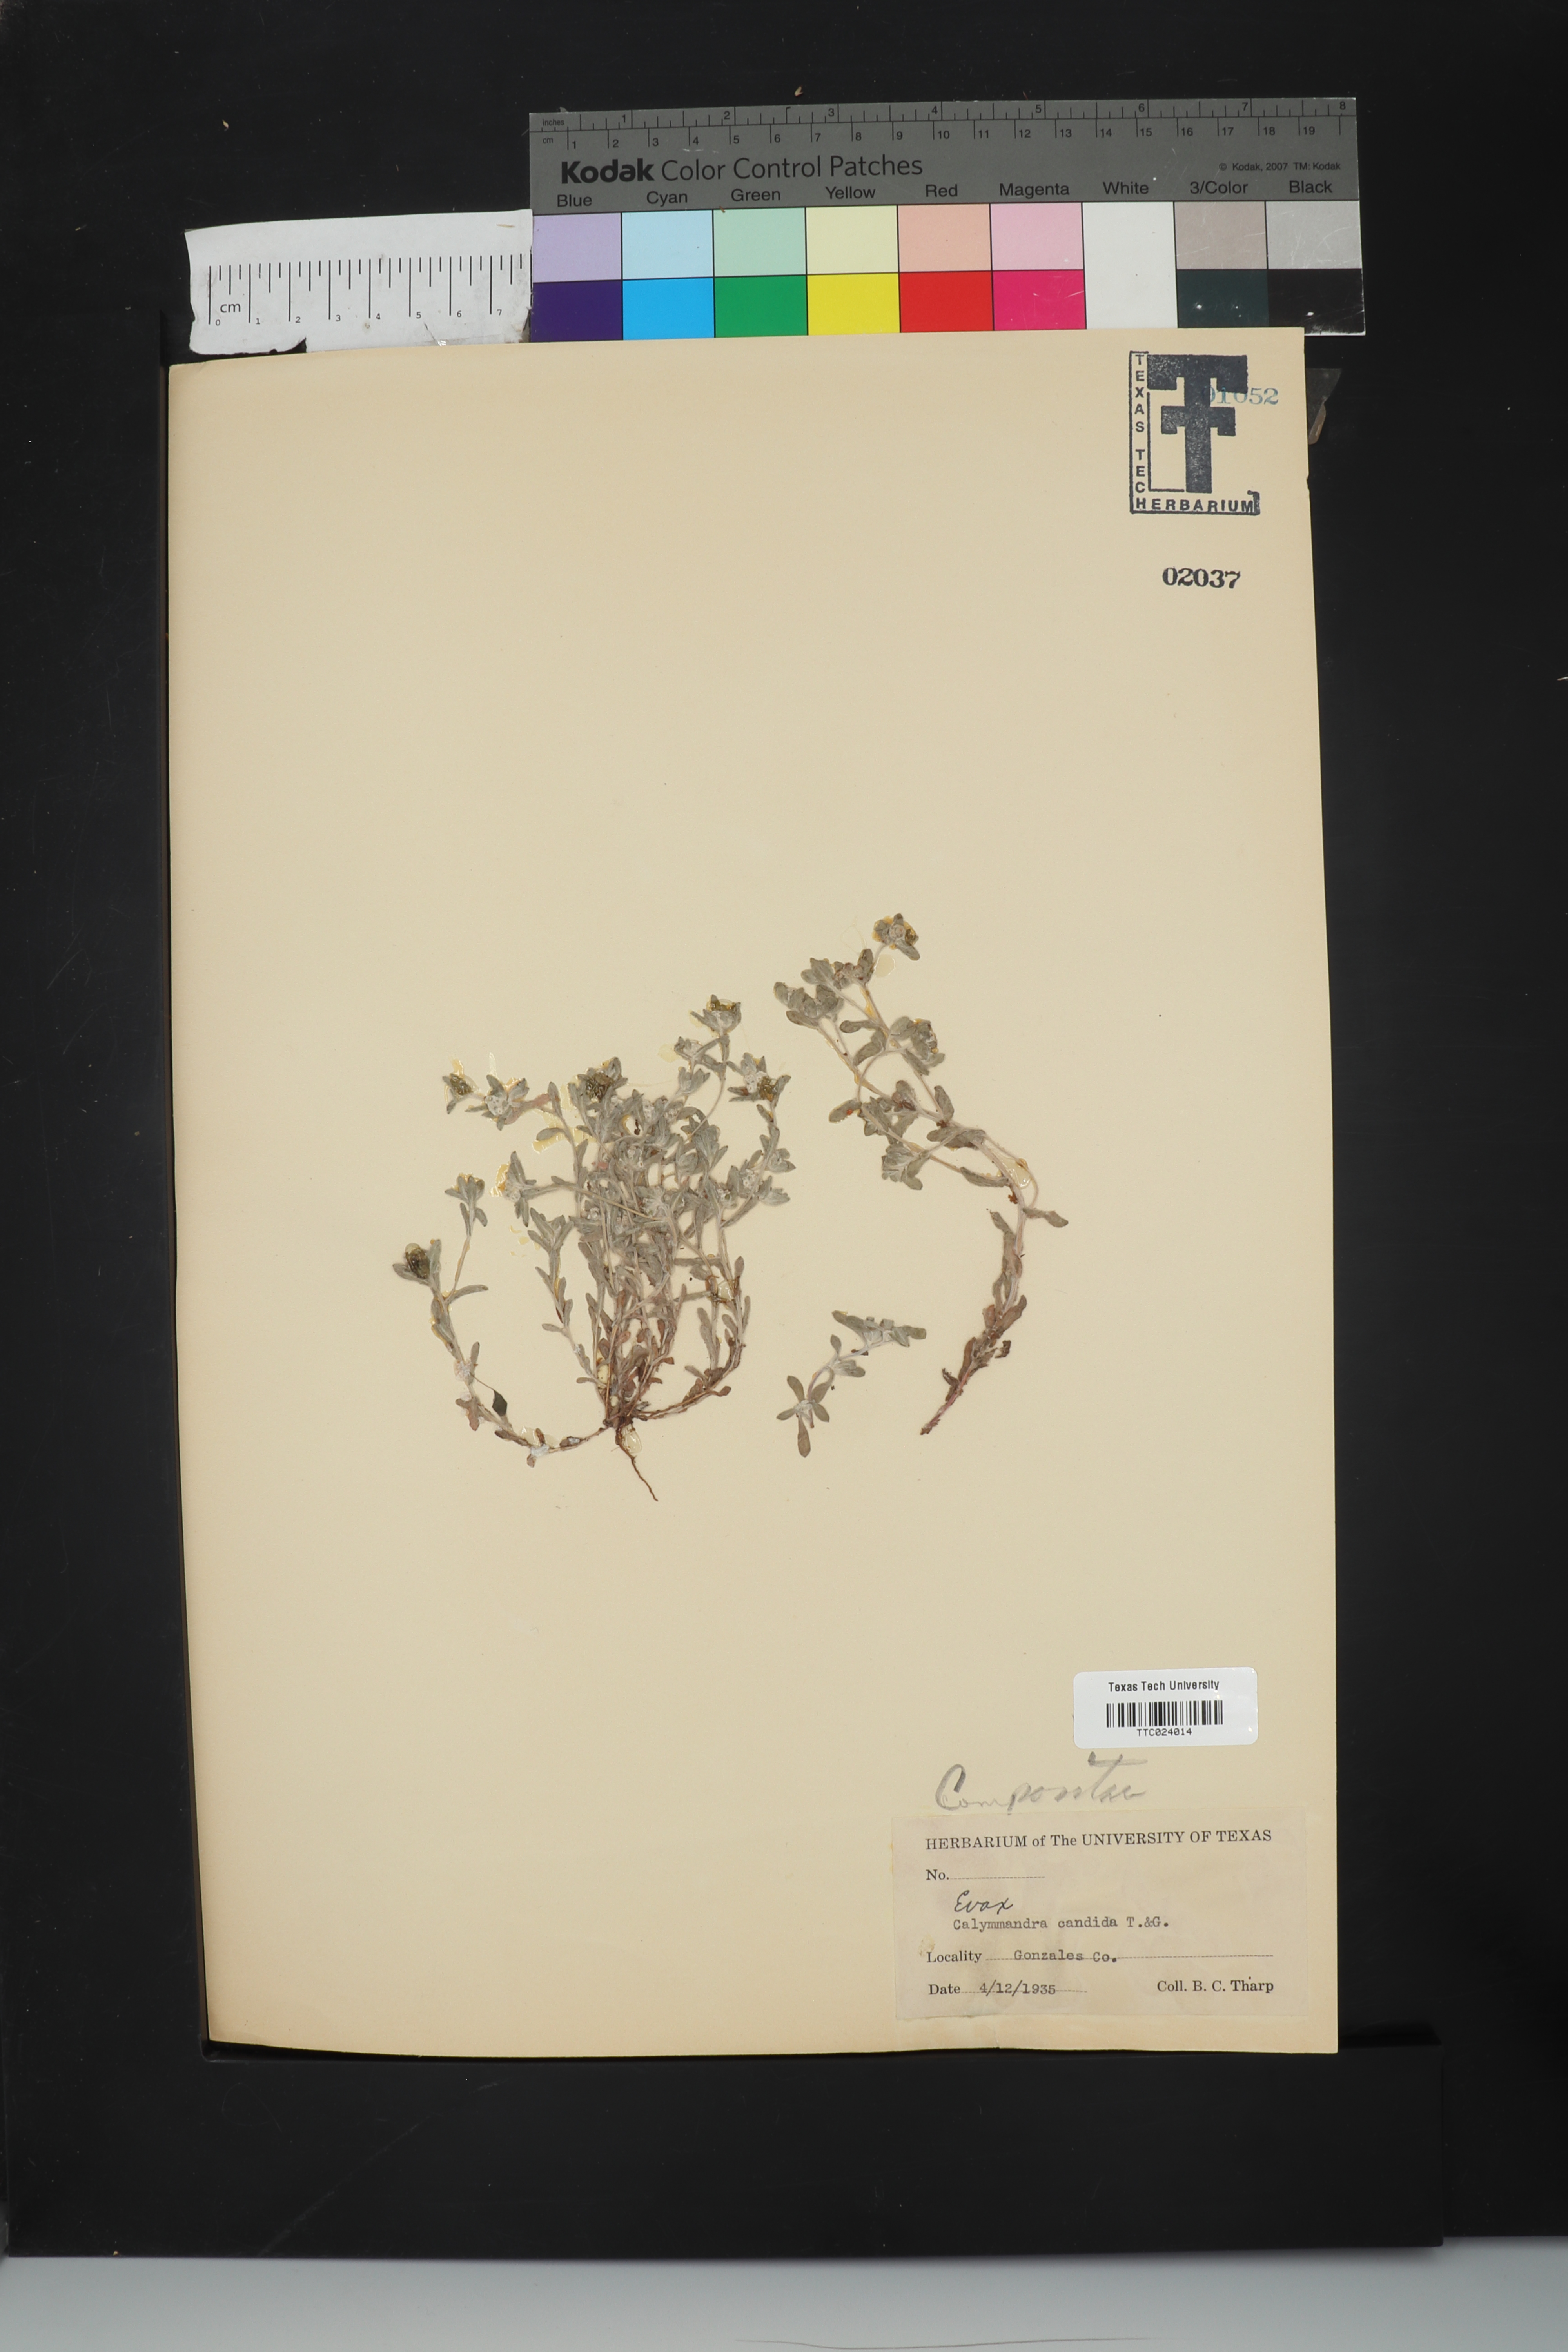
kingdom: Plantae
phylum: Tracheophyta
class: Magnoliopsida
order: Asterales
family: Asteraceae
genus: Diaperia
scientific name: Diaperia candida
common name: Silver rabbit-tobacco
